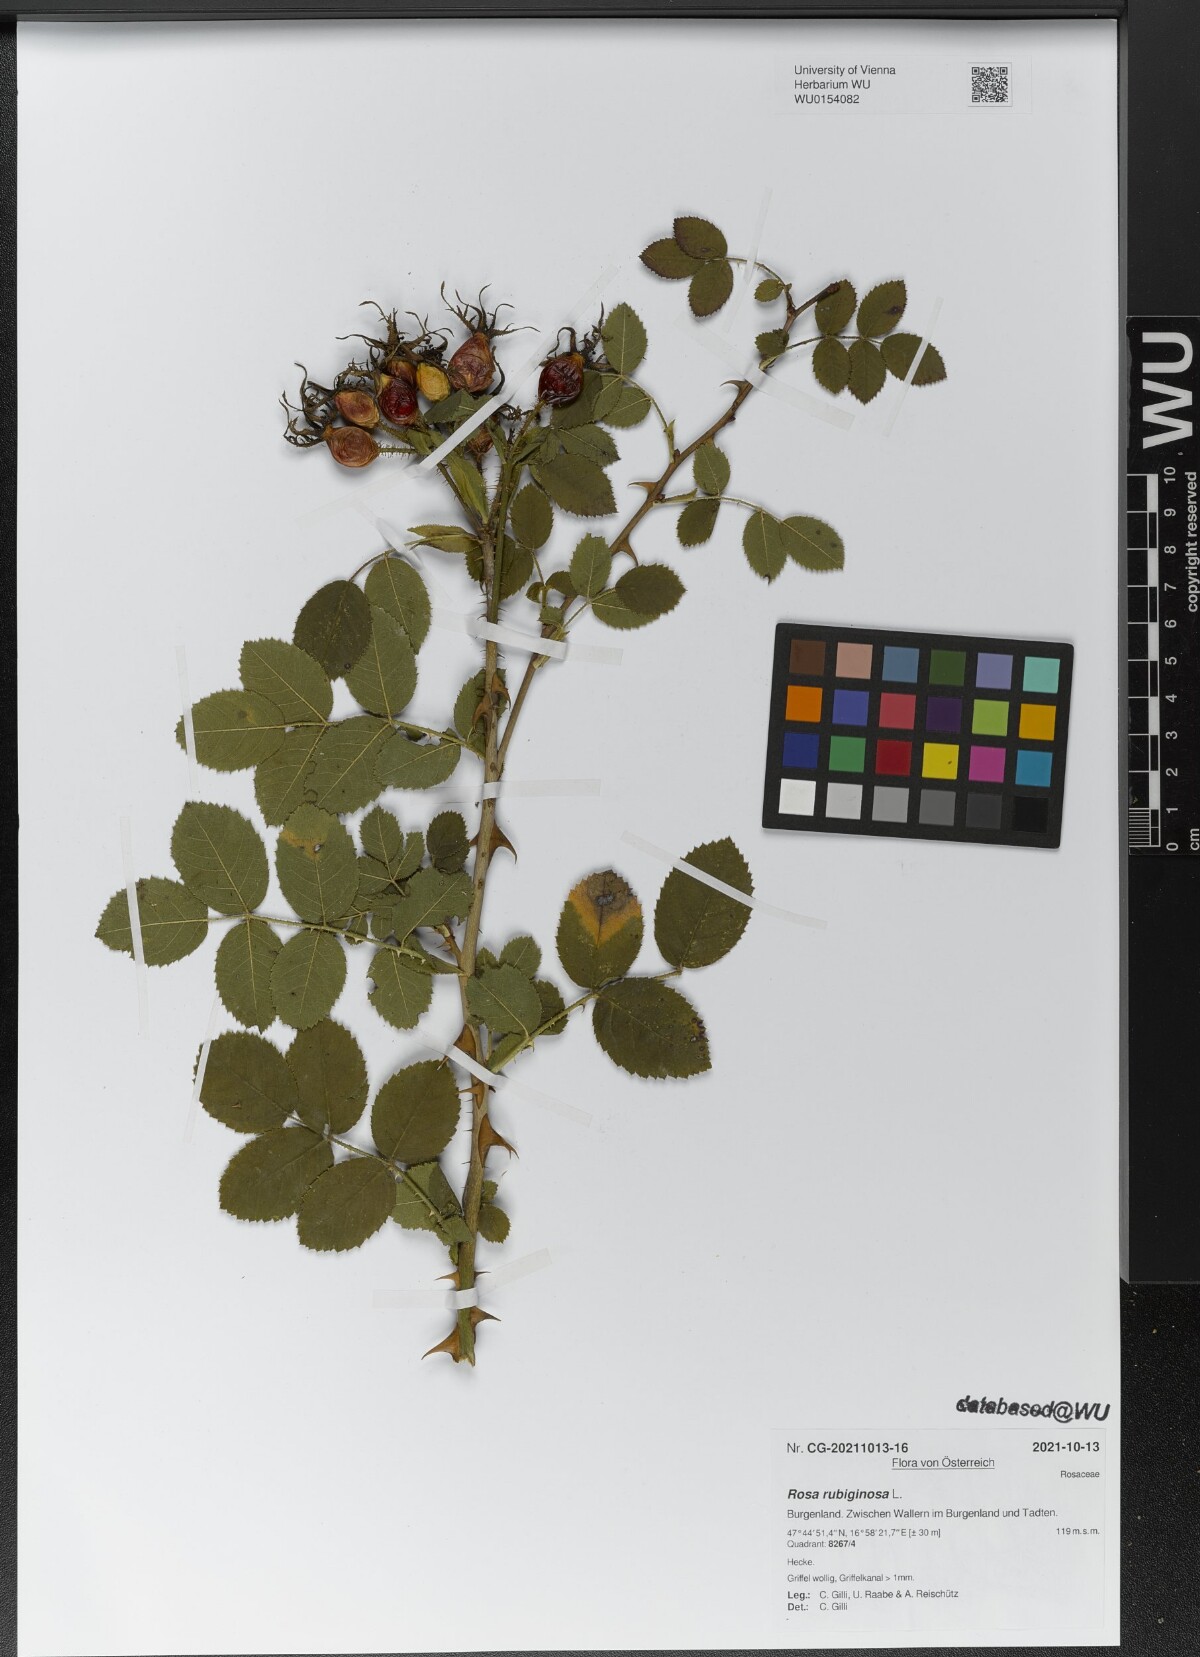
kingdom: Plantae
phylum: Tracheophyta
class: Magnoliopsida
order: Rosales
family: Rosaceae
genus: Rosa
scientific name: Rosa rubiginosa
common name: Sweet-briar
